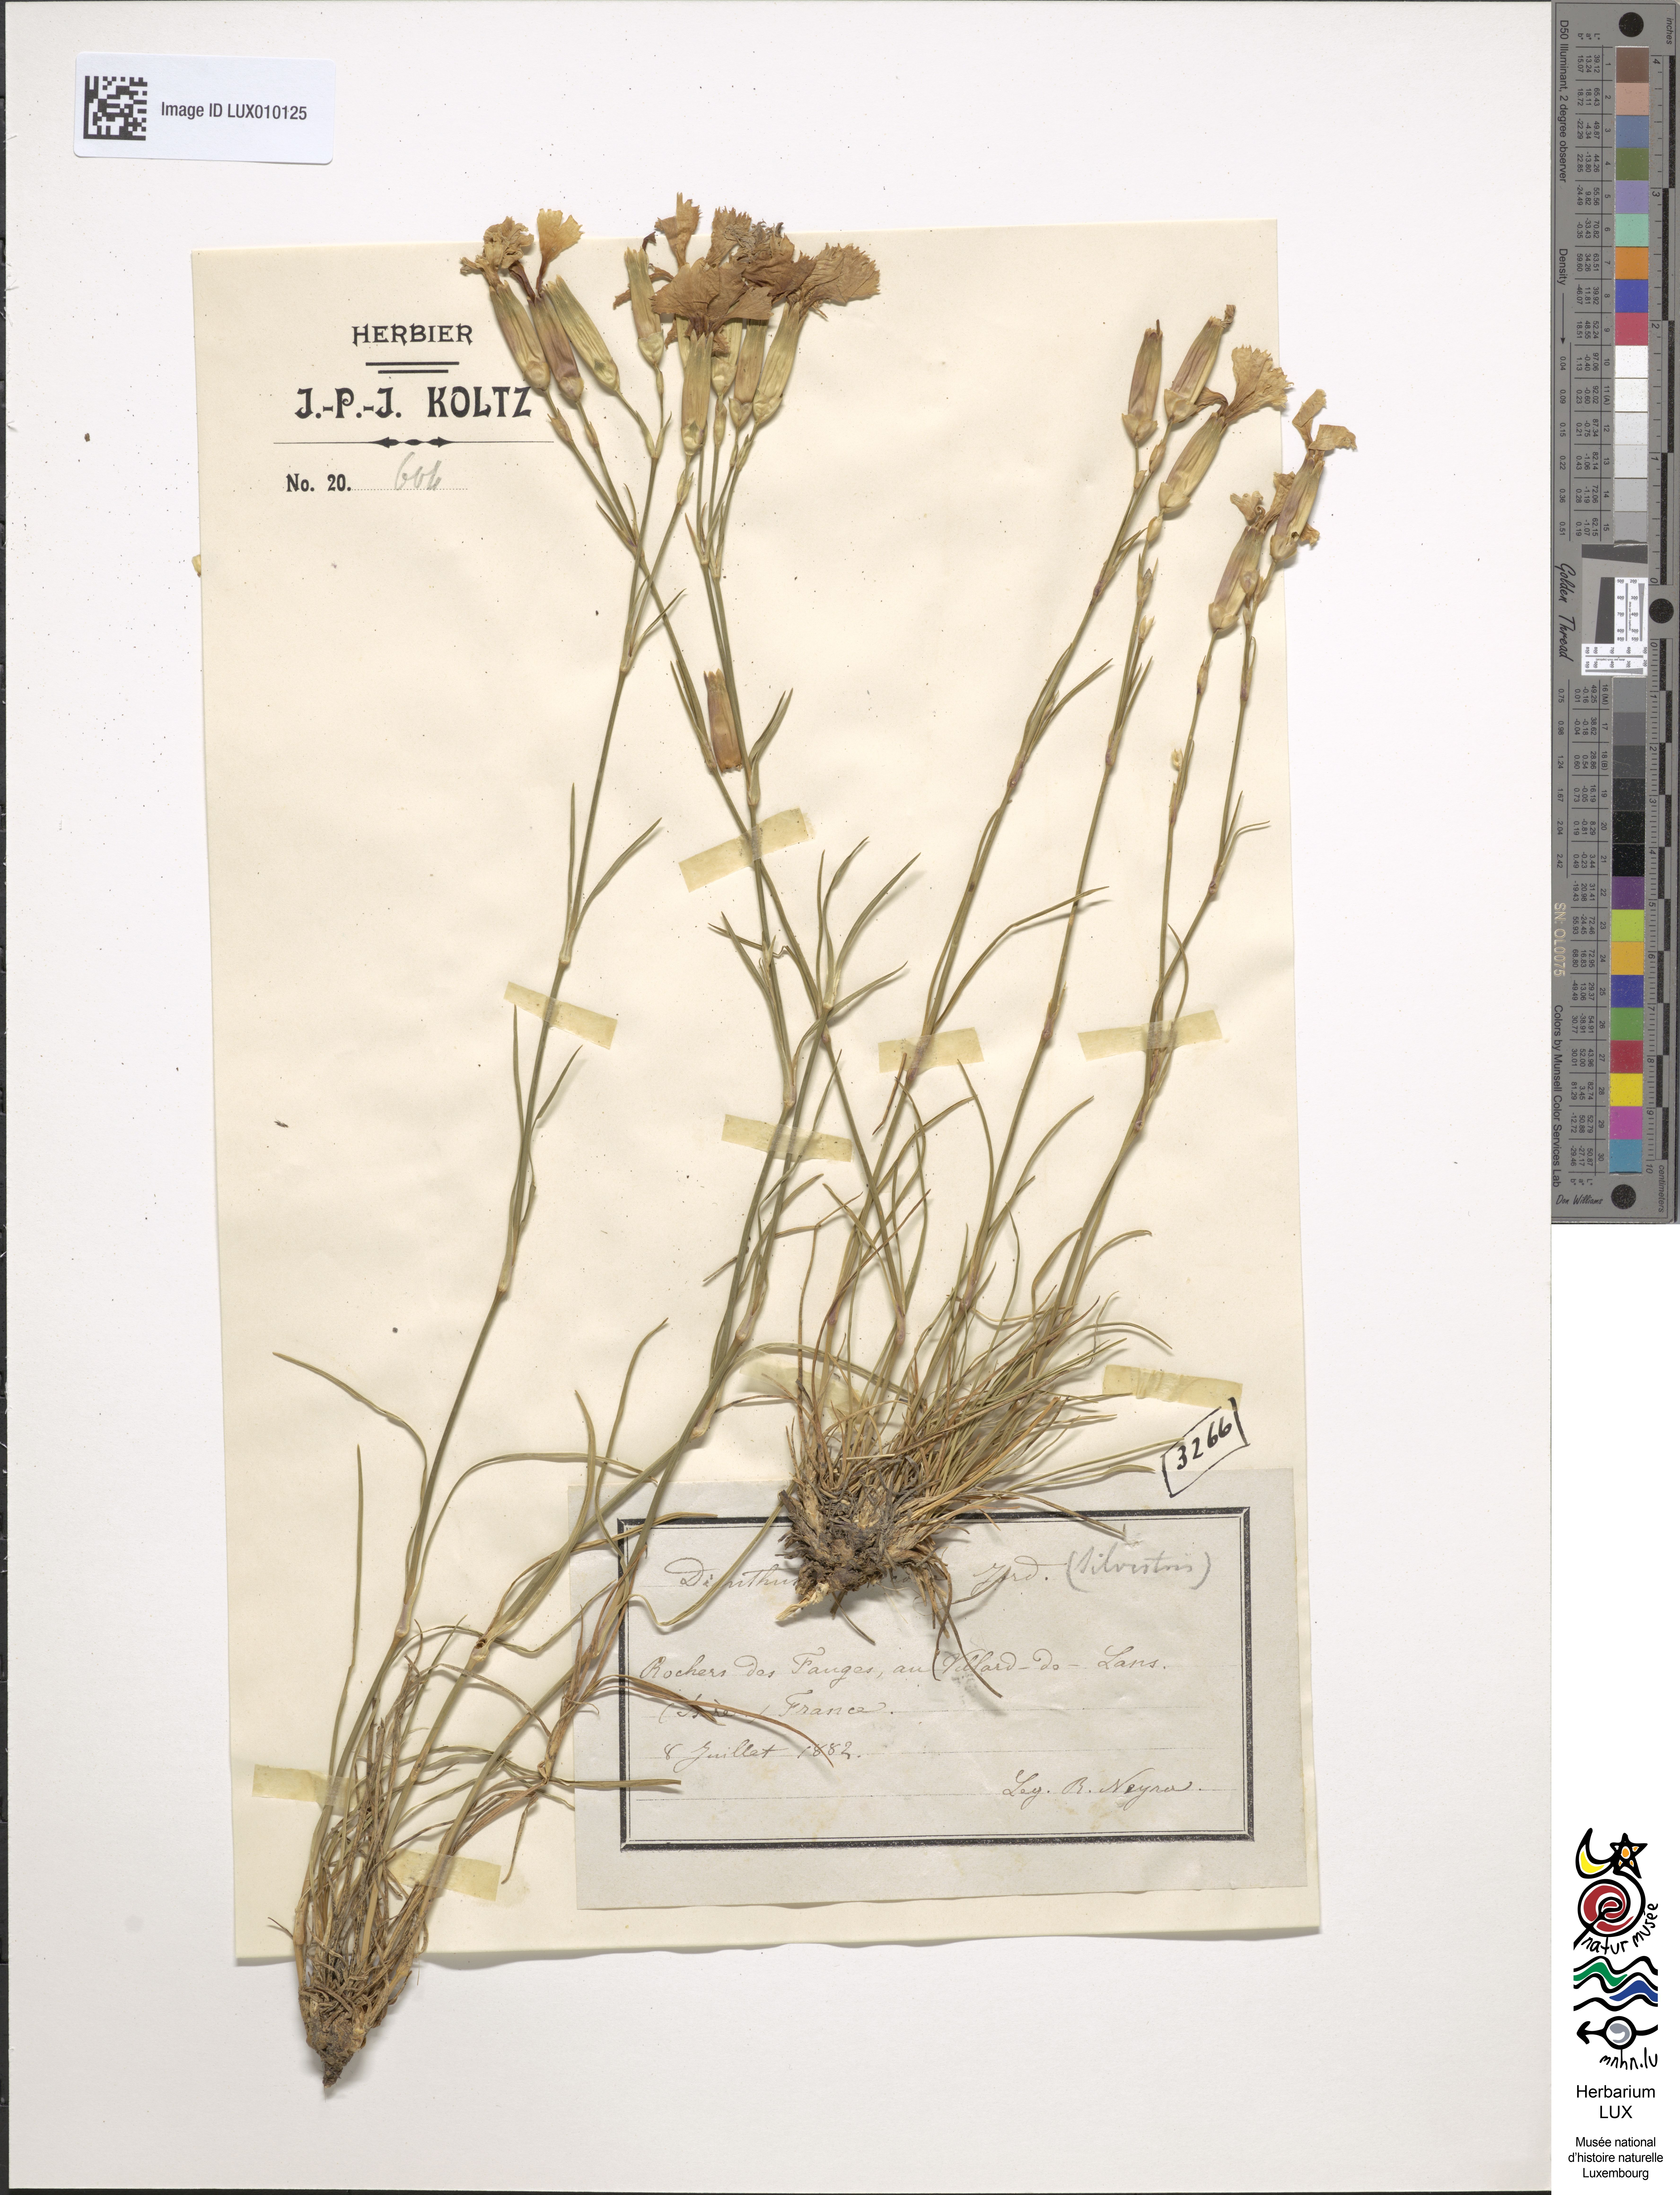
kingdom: Plantae
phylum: Tracheophyta
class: Magnoliopsida
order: Caryophyllales
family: Caryophyllaceae
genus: Dianthus
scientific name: Dianthus silvester
